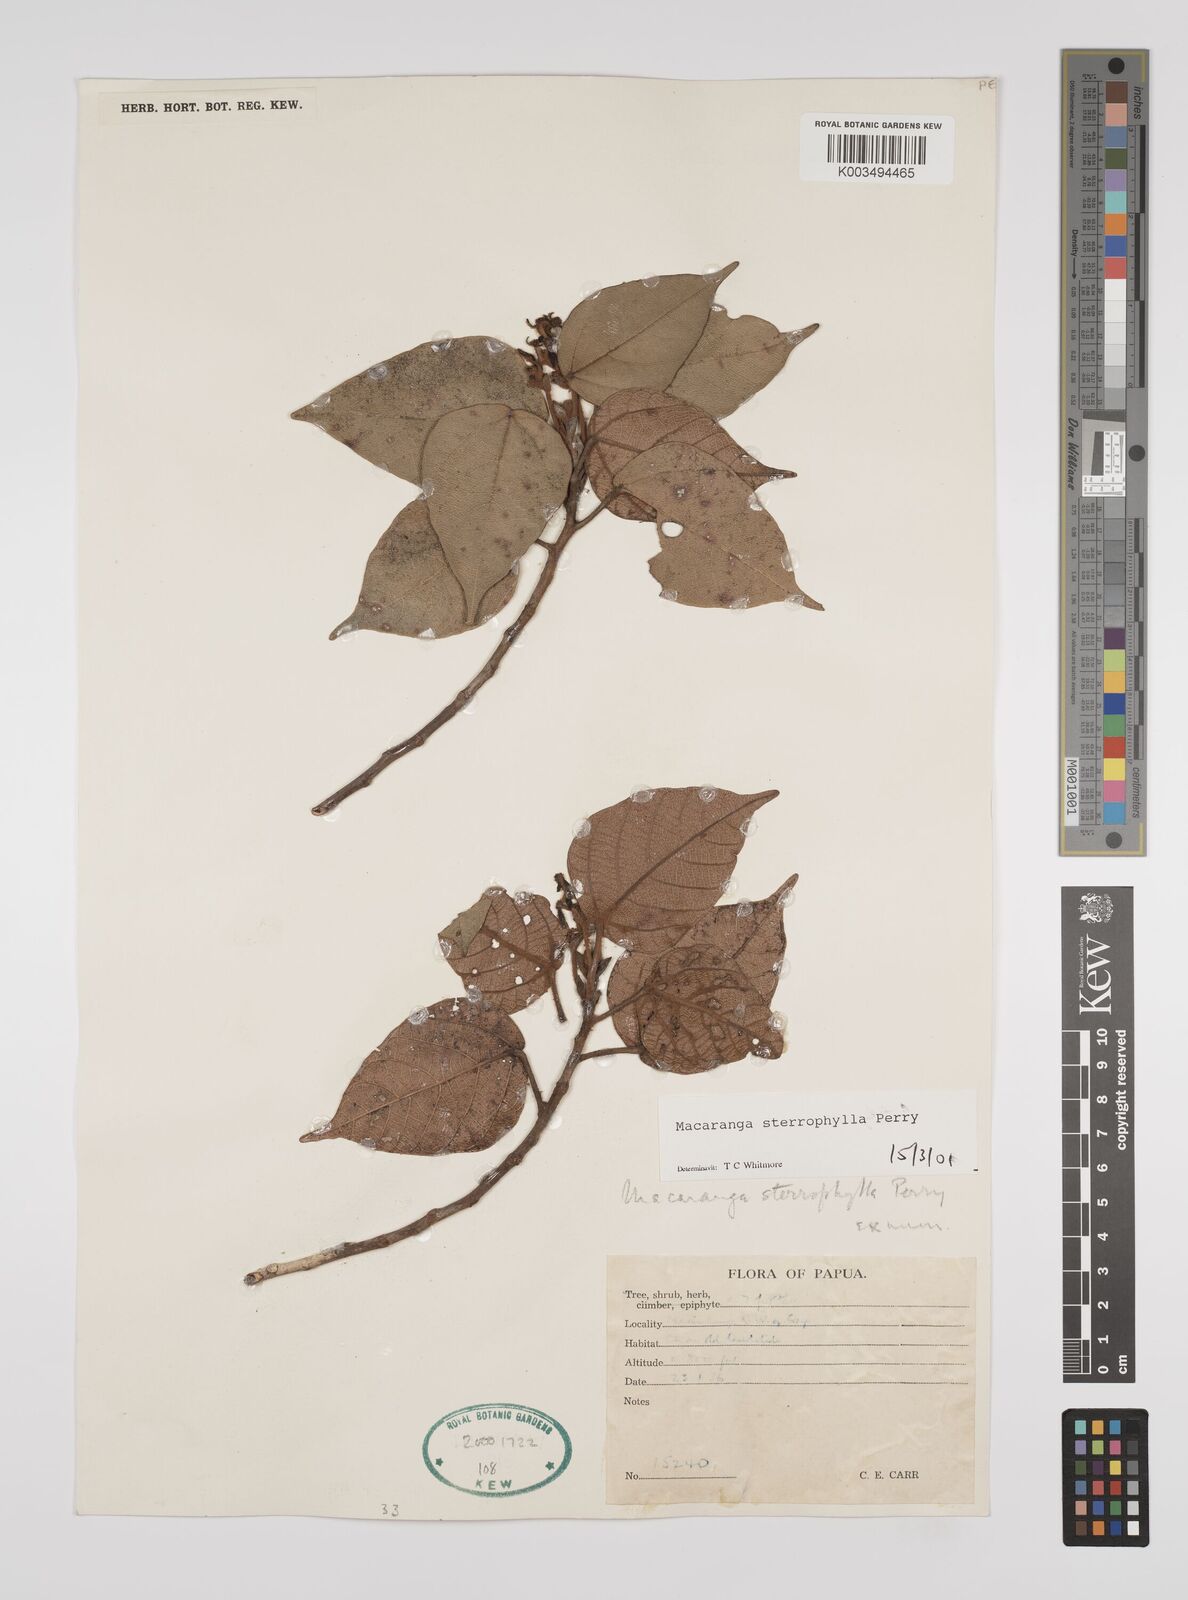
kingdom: Plantae
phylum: Tracheophyta
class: Magnoliopsida
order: Malpighiales
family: Euphorbiaceae
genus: Macaranga
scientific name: Macaranga stenophylla
